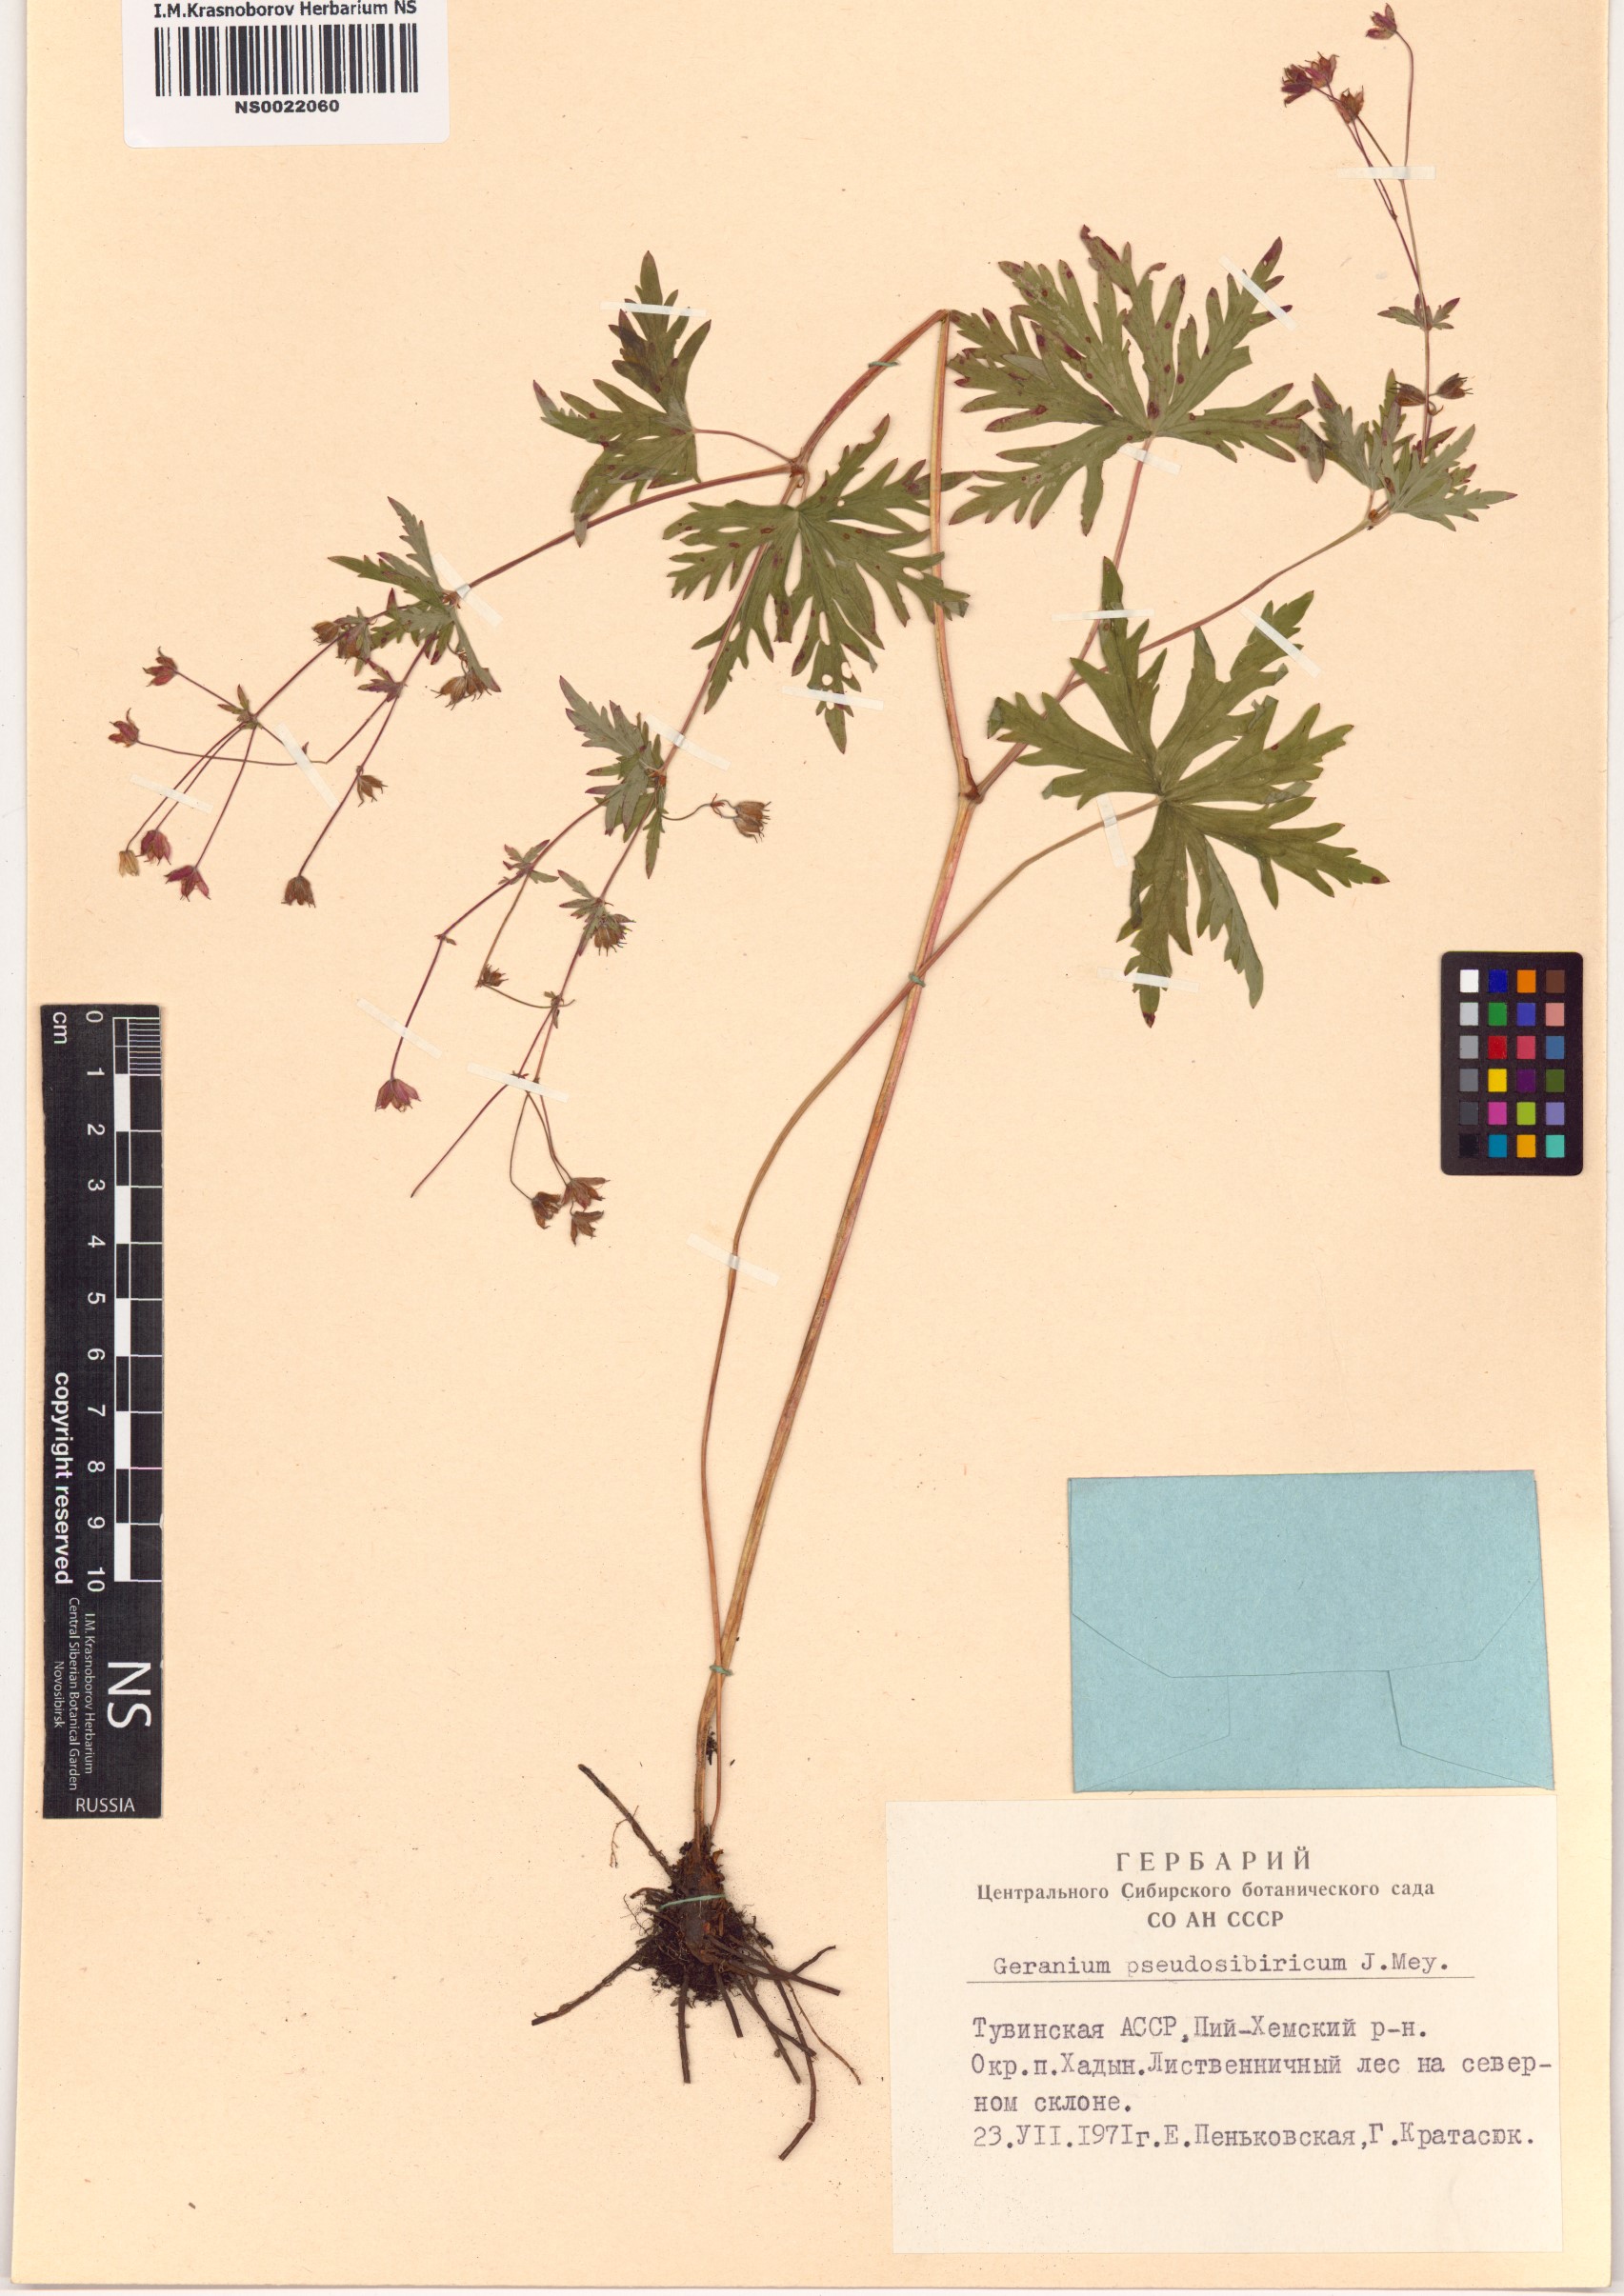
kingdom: Plantae
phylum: Tracheophyta
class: Magnoliopsida
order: Geraniales
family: Geraniaceae
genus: Geranium
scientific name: Geranium pseudosibiricum
